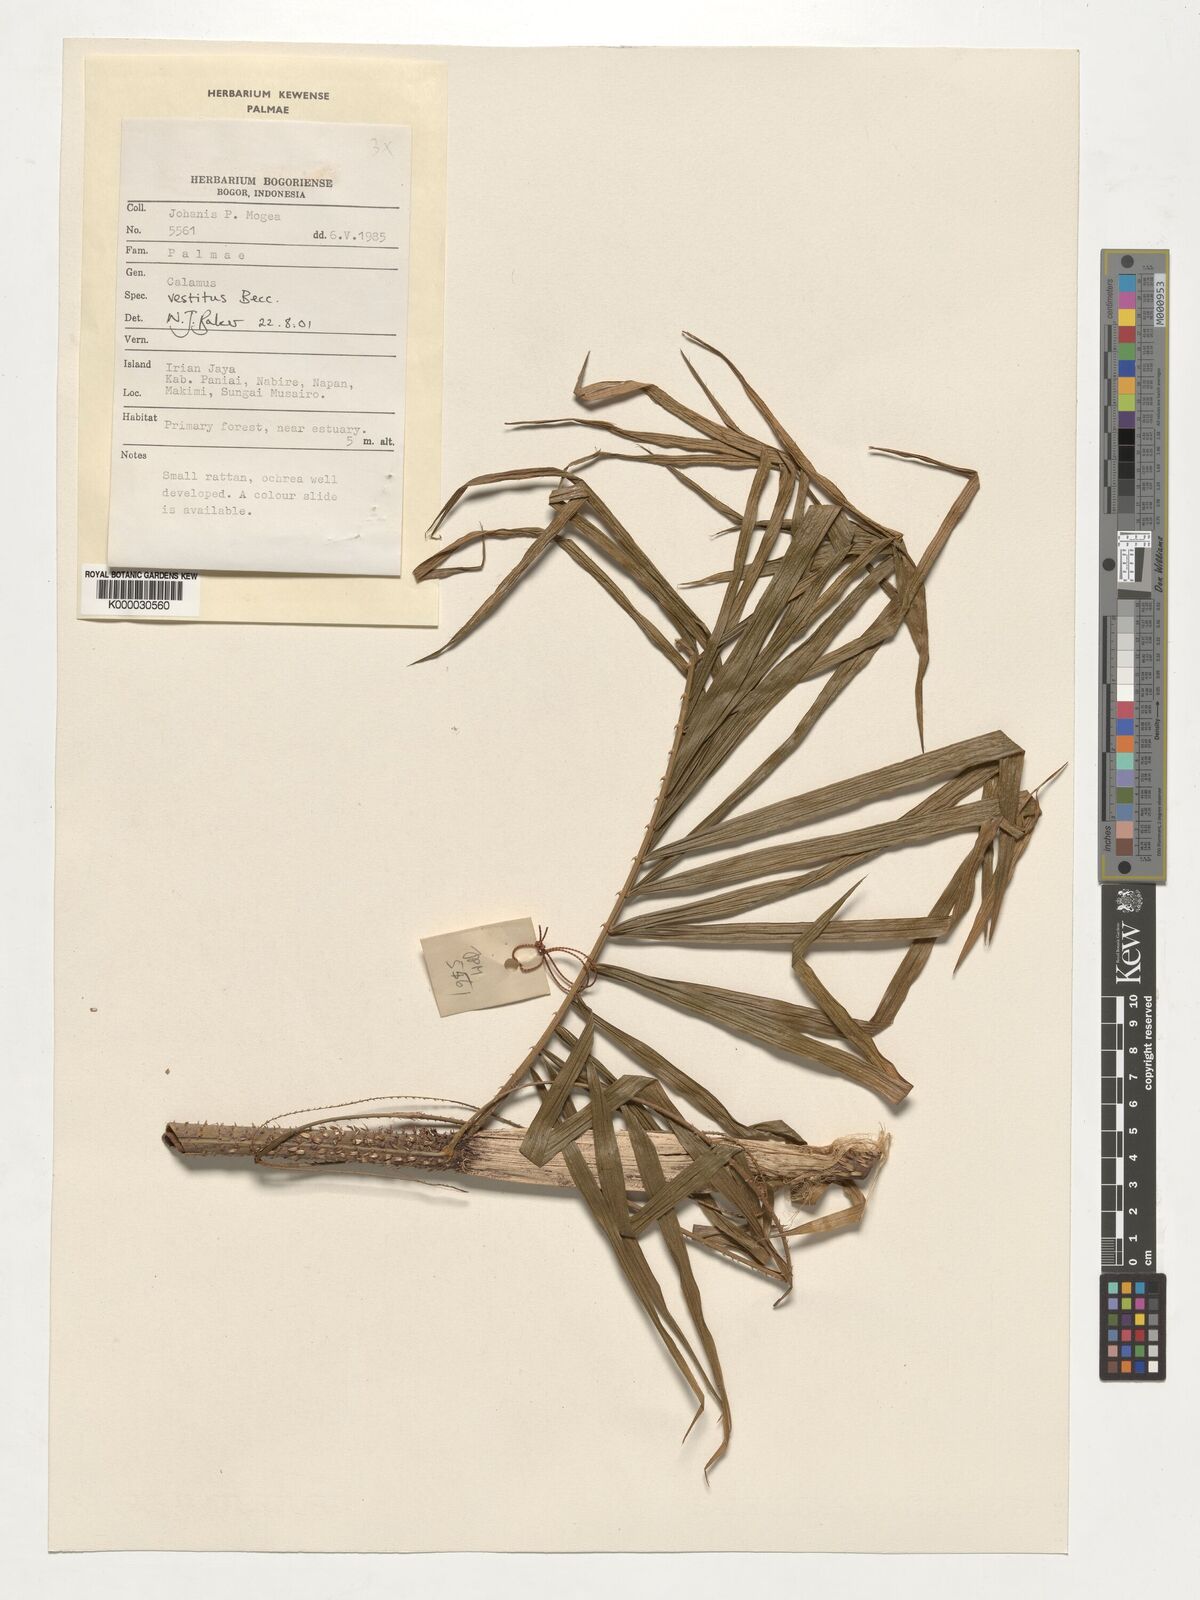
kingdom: Plantae
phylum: Tracheophyta
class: Liliopsida
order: Arecales
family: Arecaceae
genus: Calamus
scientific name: Calamus vestitus
